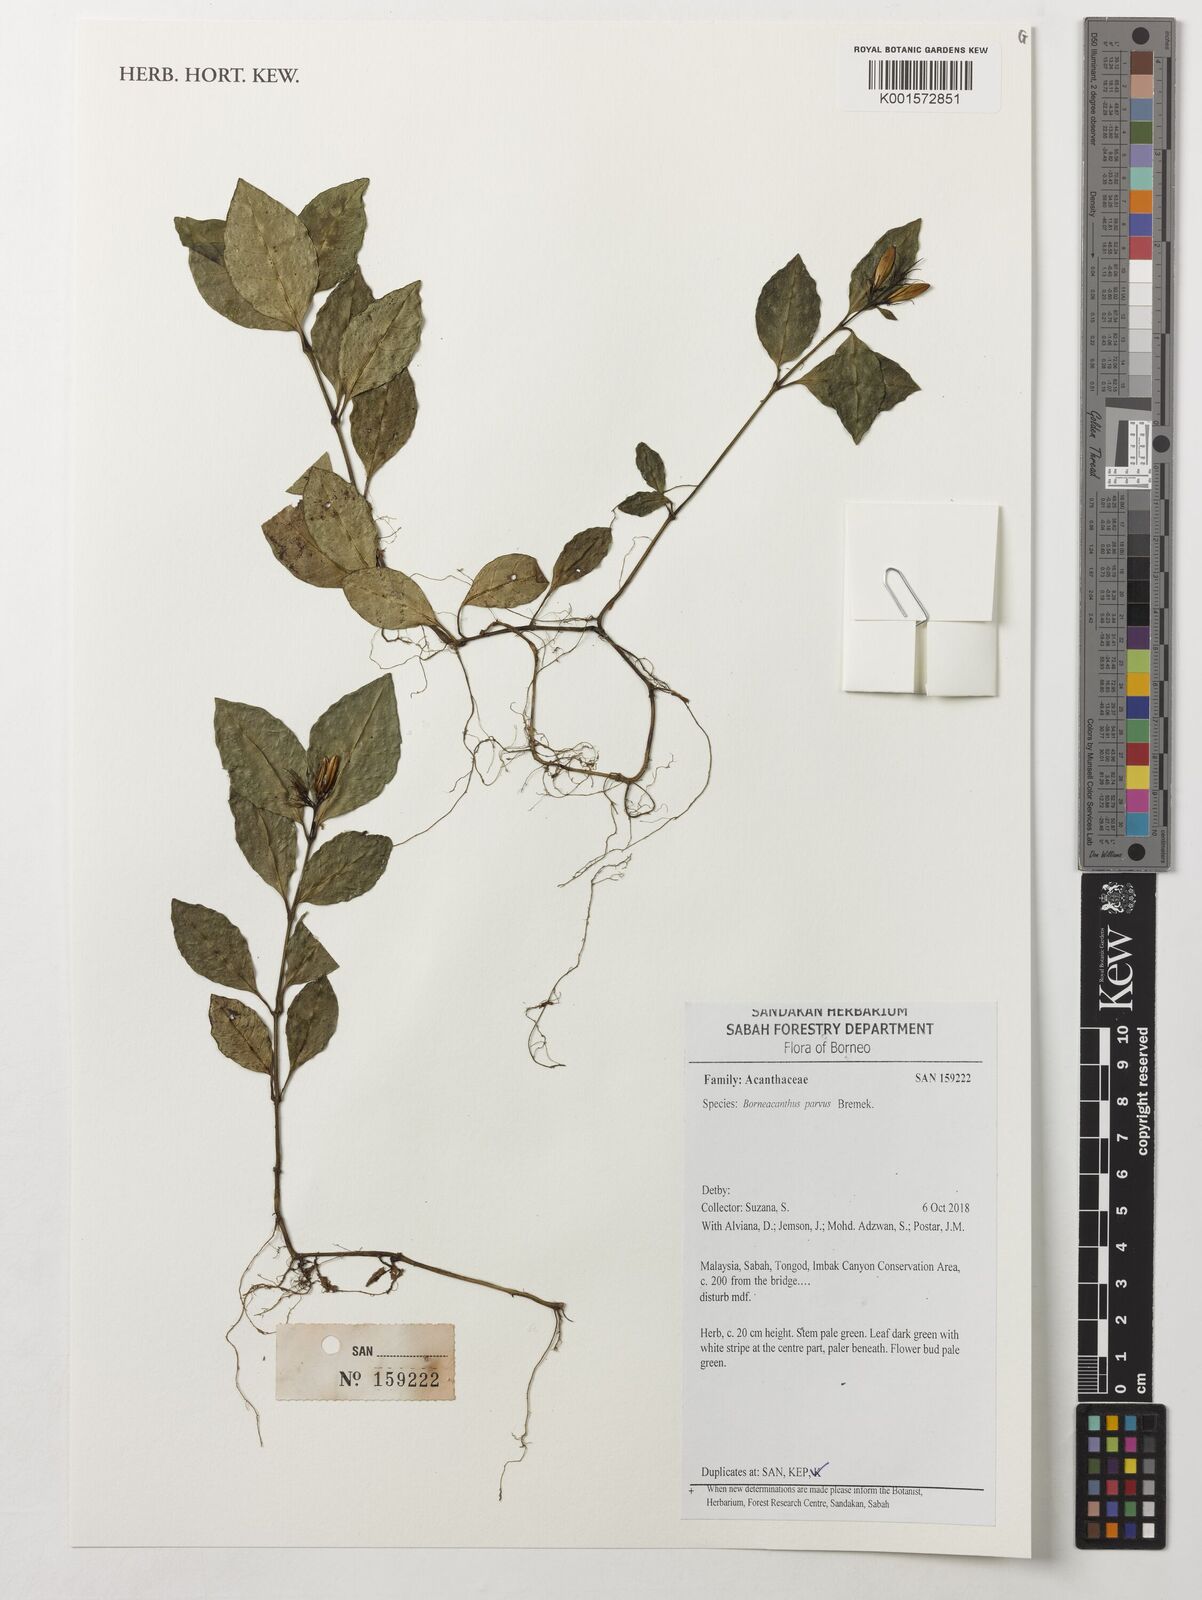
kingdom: Plantae
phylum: Tracheophyta
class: Magnoliopsida
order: Lamiales
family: Acanthaceae
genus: Borneacanthus
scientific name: Borneacanthus parvus
